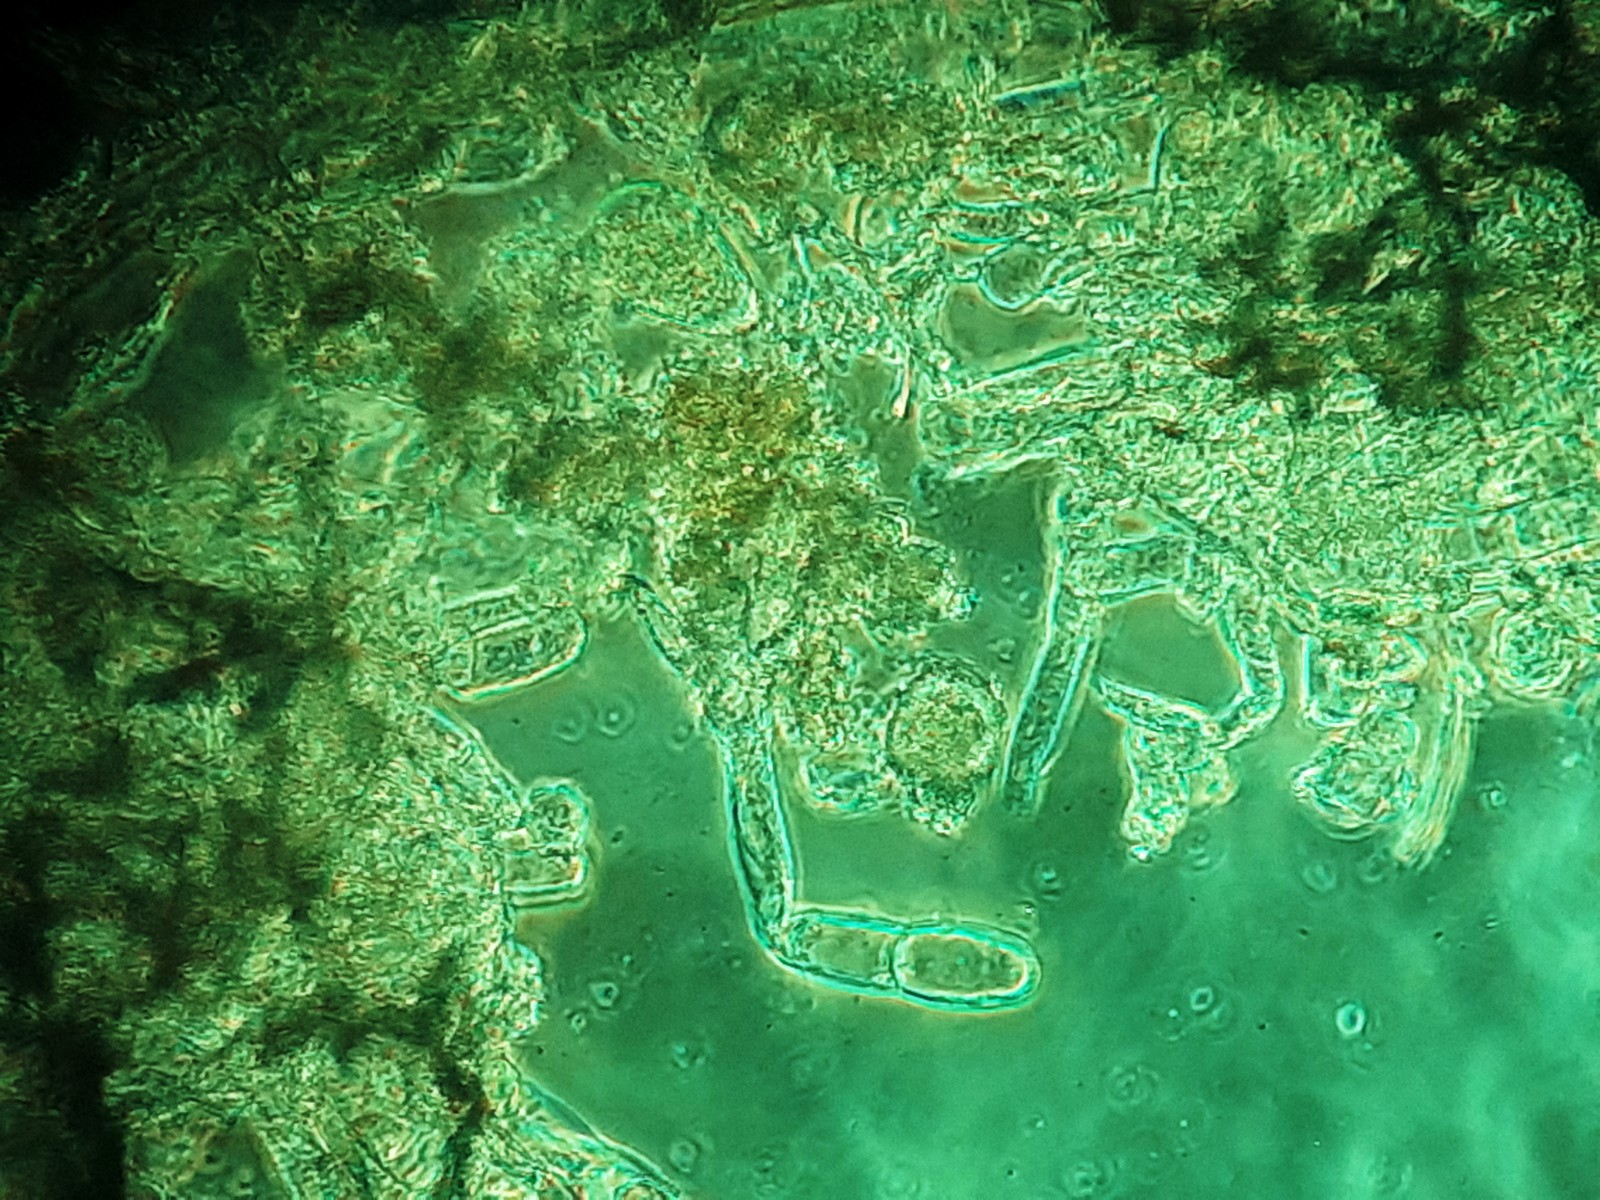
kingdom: Fungi
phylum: Ascomycota
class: Leotiomycetes
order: Helotiales
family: Erysiphaceae
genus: Golovinomyces
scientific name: Golovinomyces sonchicola
